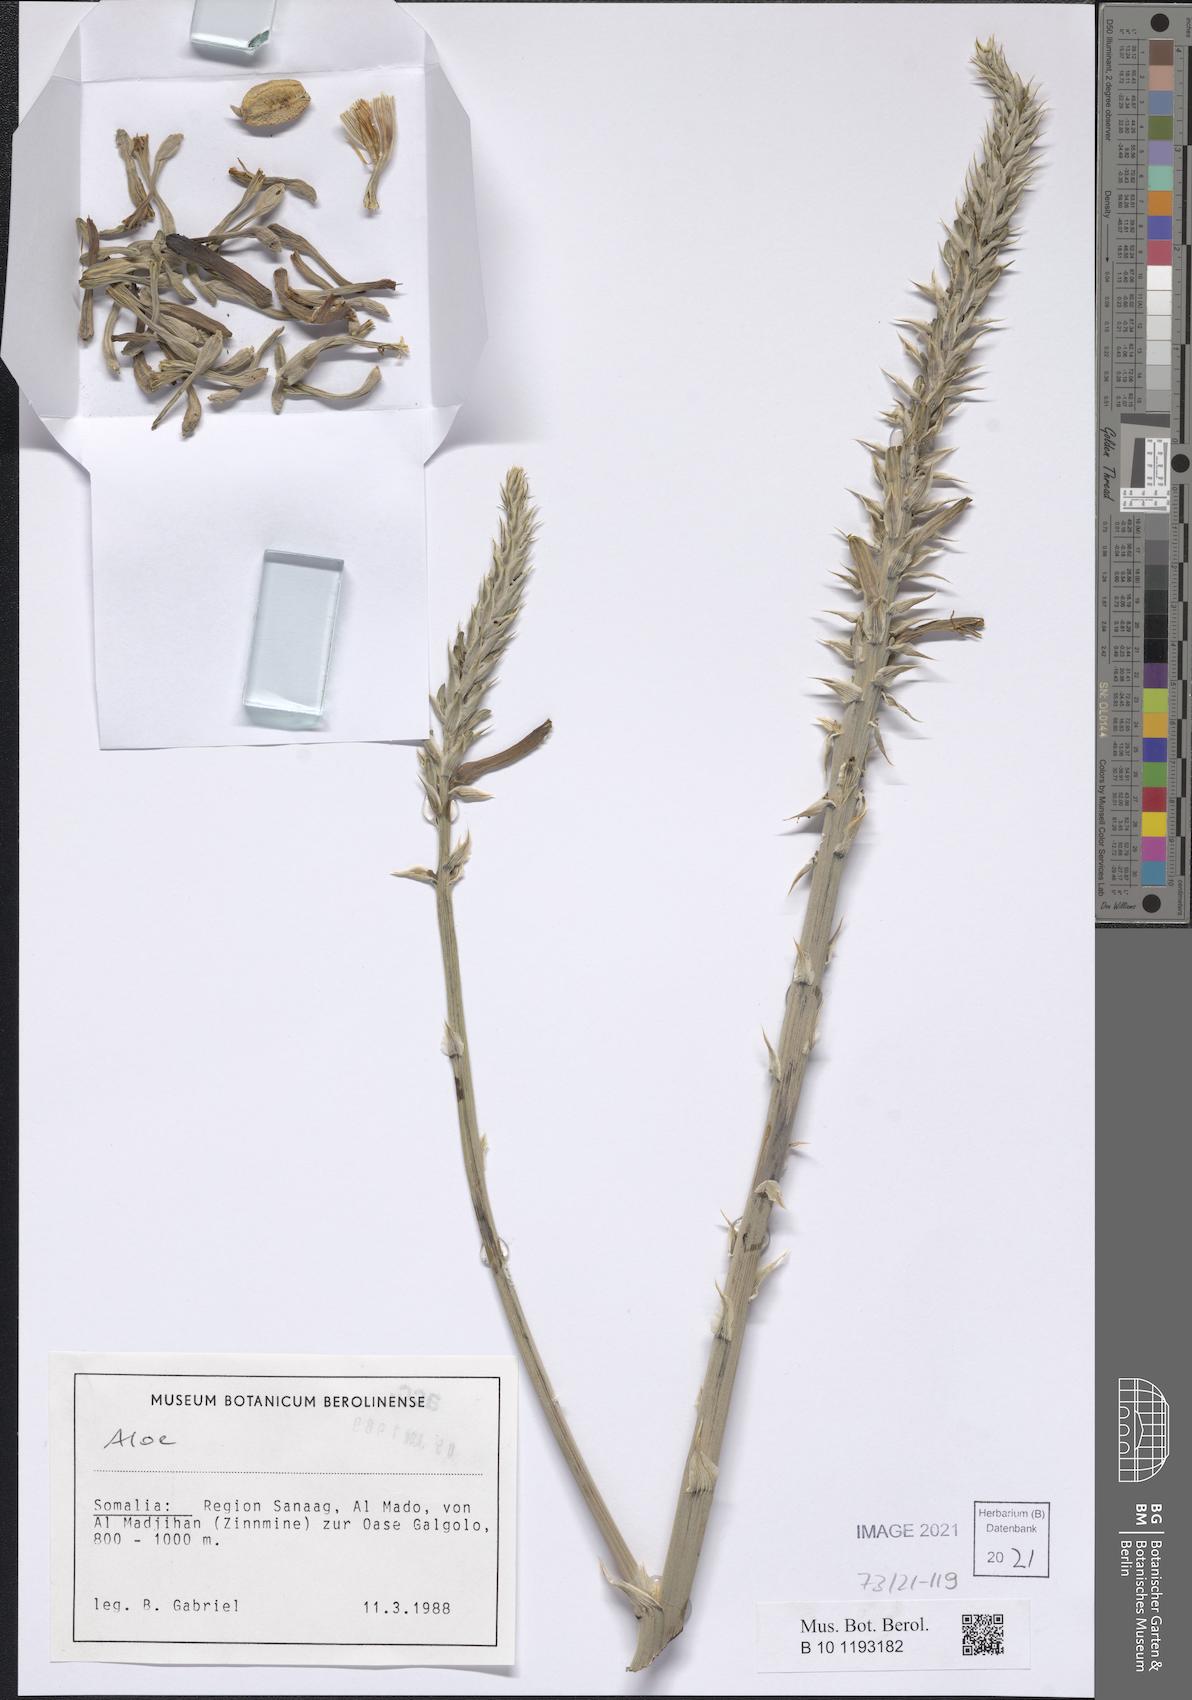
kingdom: Plantae
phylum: Tracheophyta
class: Liliopsida
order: Asparagales
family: Asphodelaceae
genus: Aloe
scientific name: Aloe
